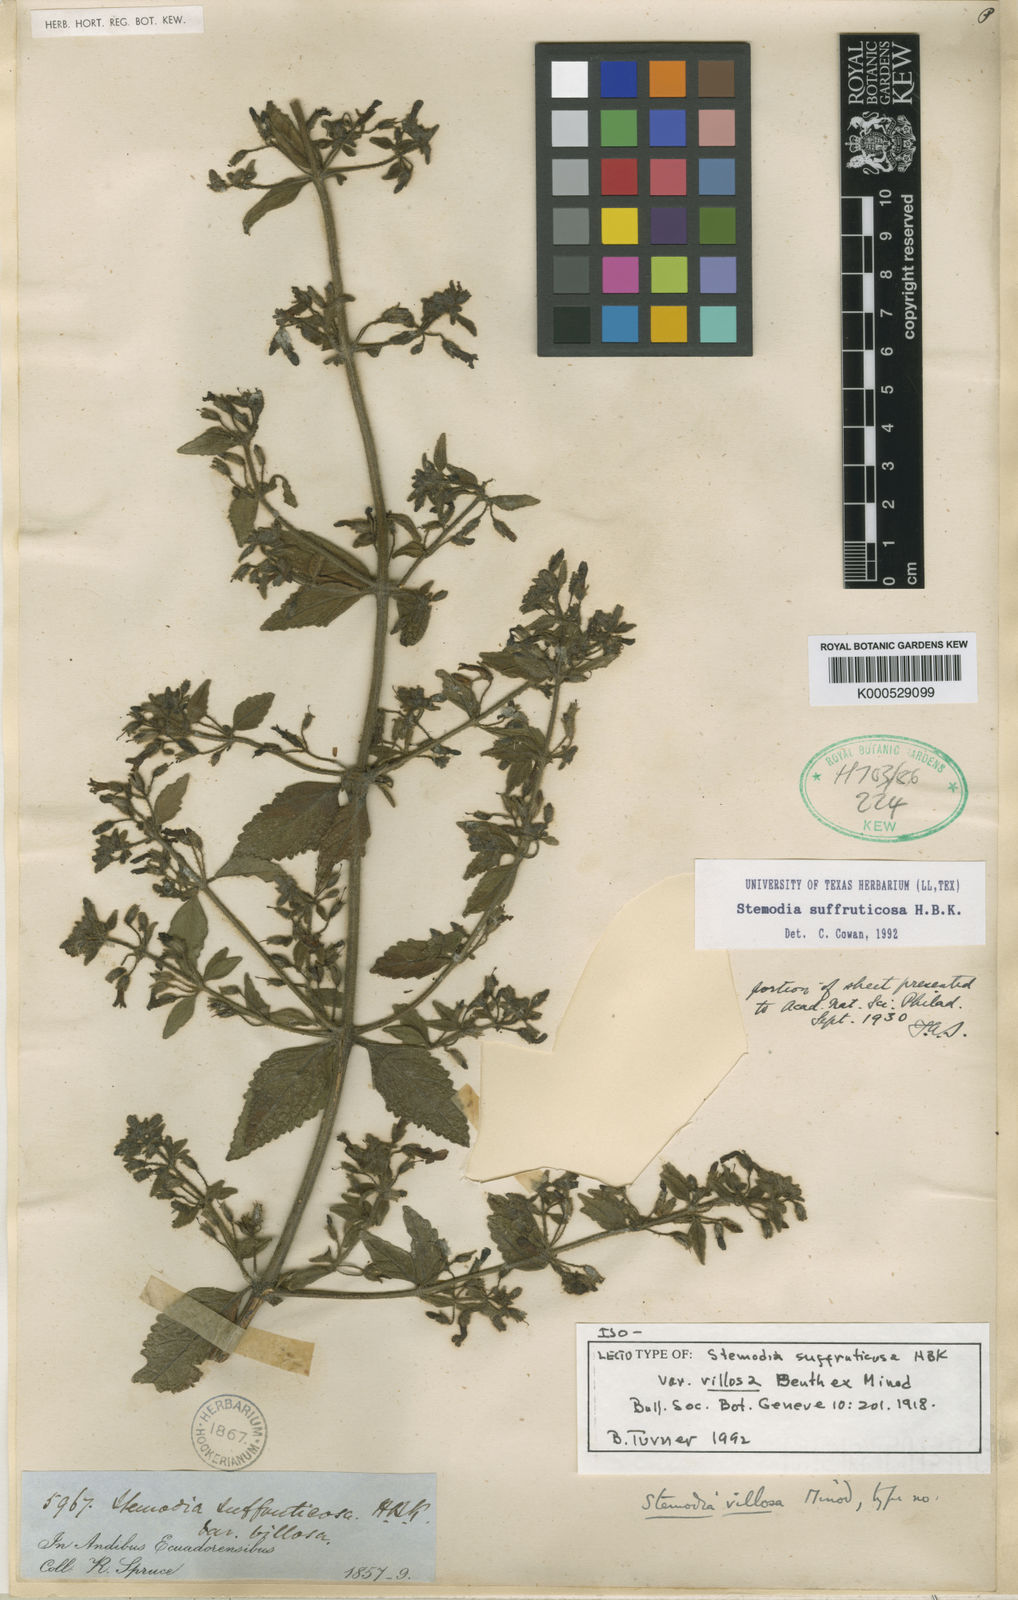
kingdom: Plantae
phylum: Tracheophyta
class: Magnoliopsida
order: Lamiales
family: Plantaginaceae
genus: Stemodia
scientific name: Stemodia suffruticosa
